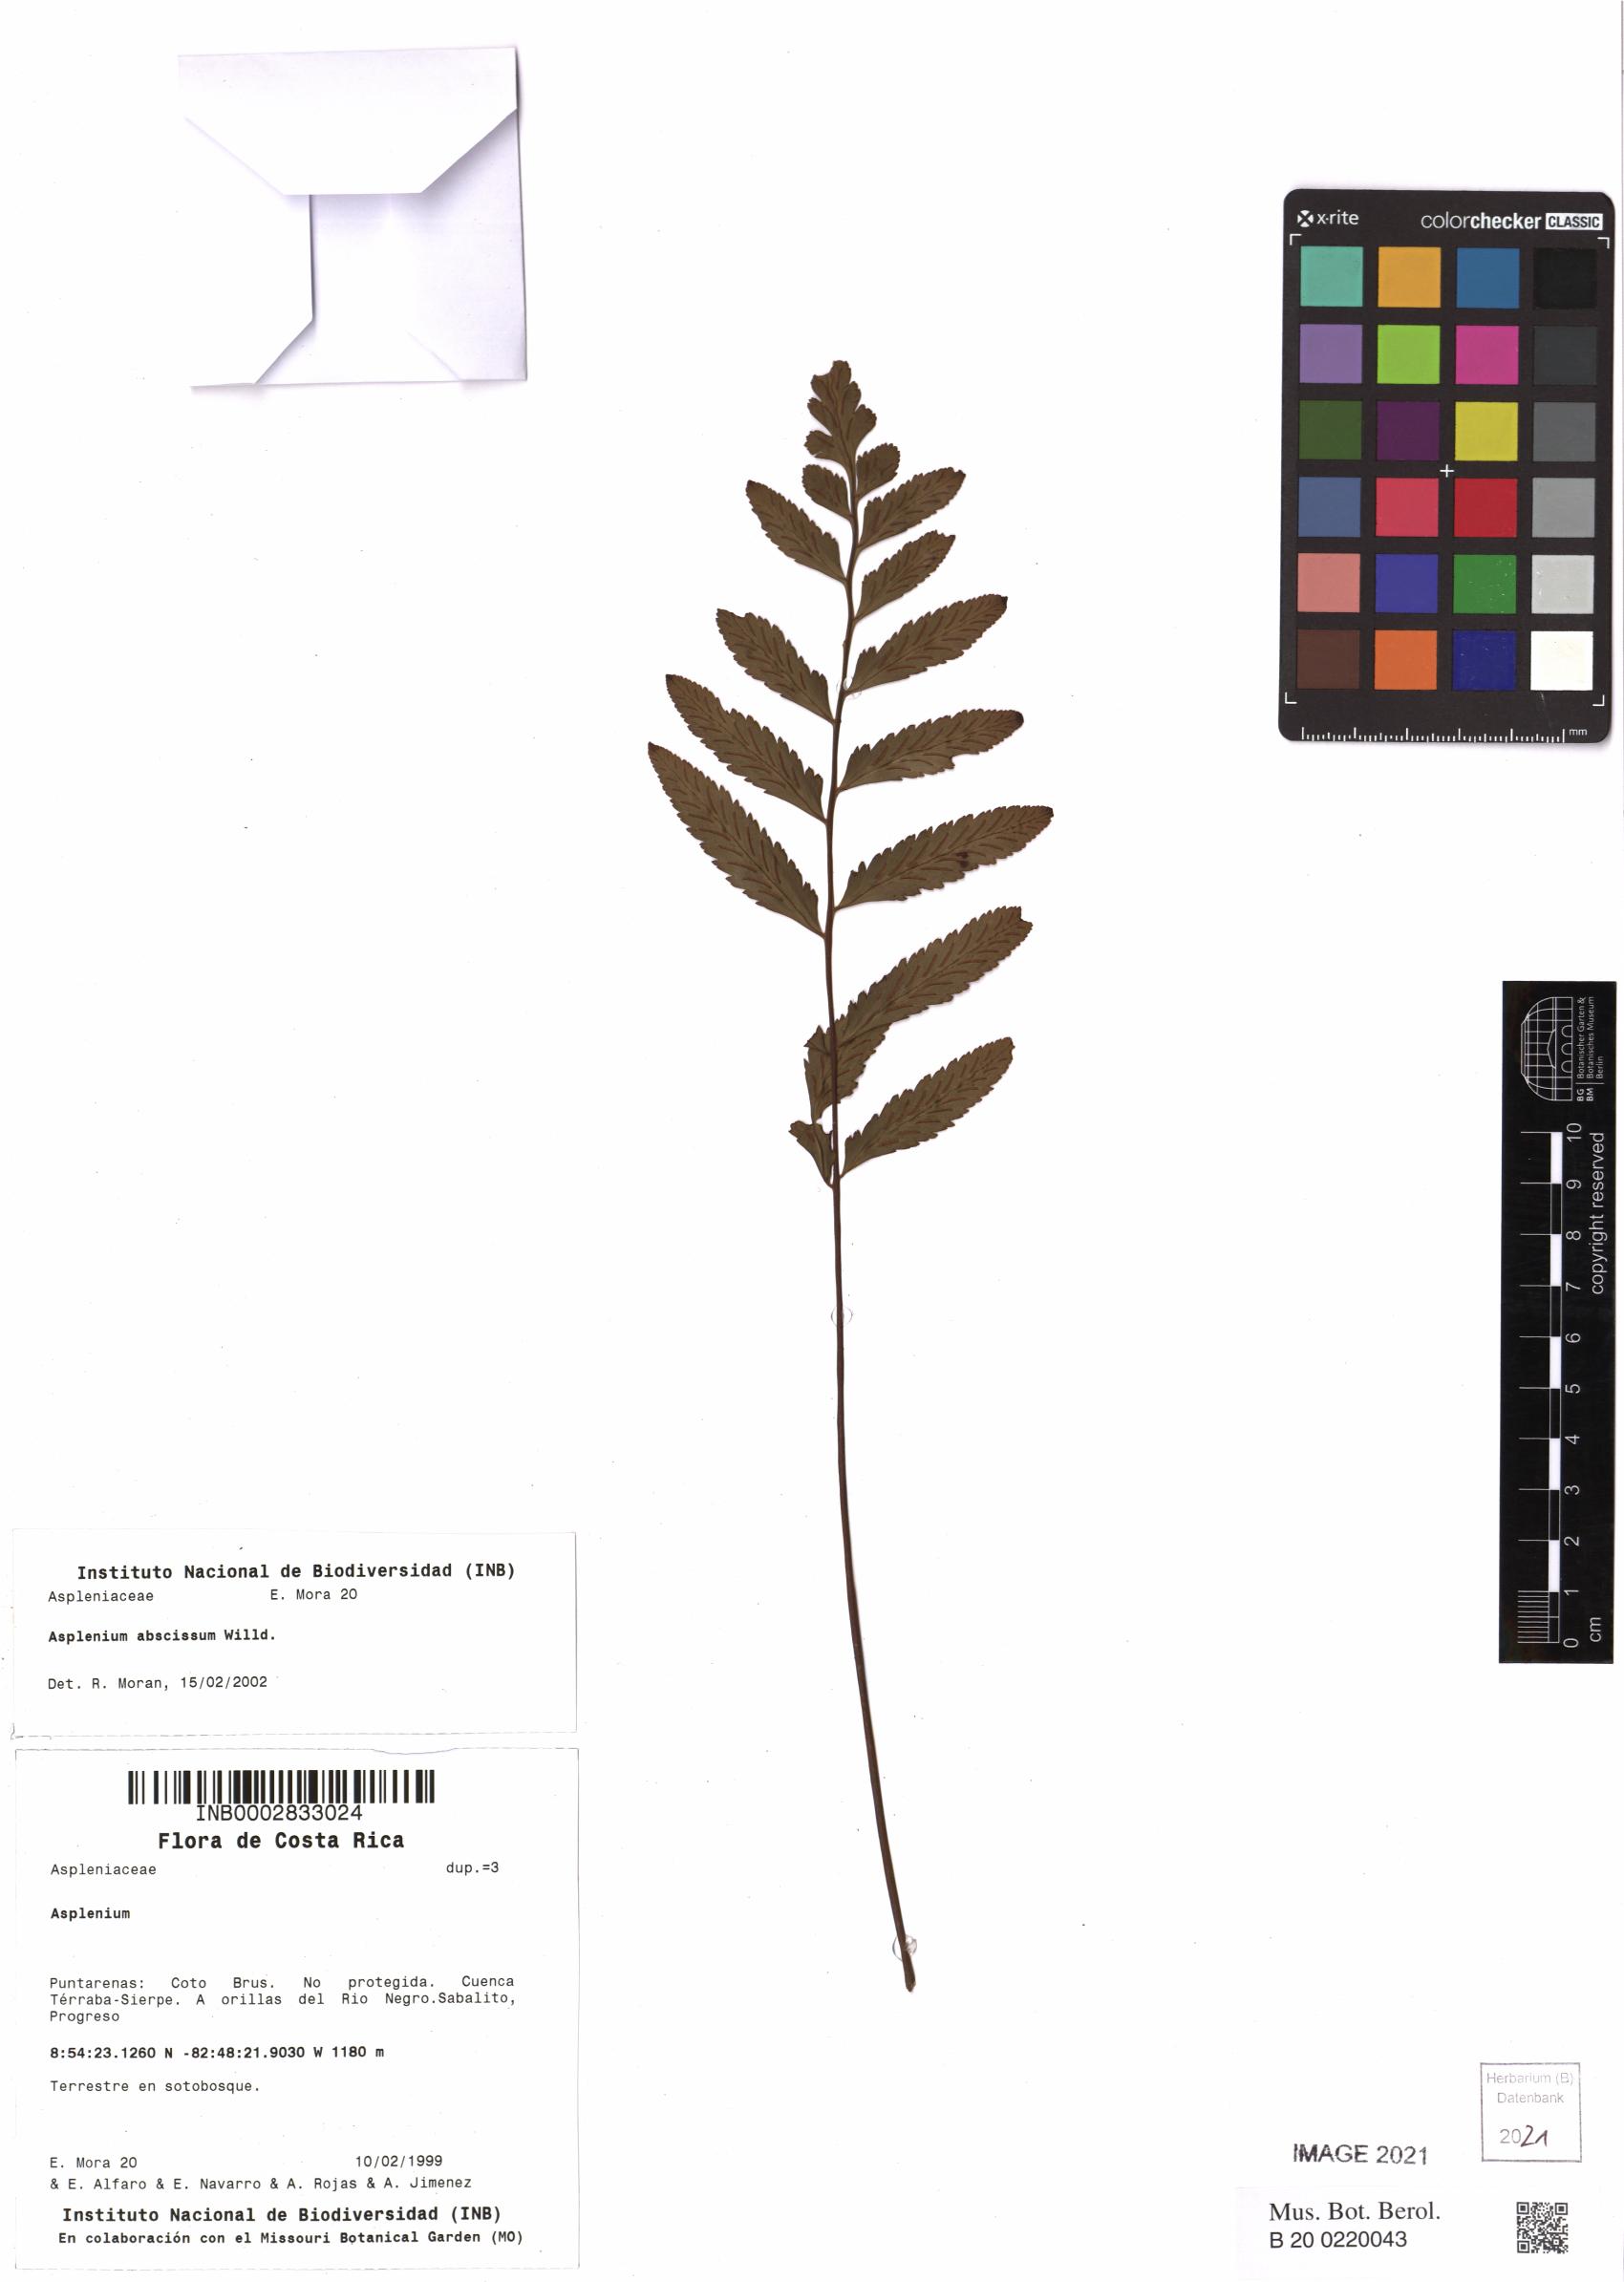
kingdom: Plantae
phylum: Tracheophyta
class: Polypodiopsida
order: Polypodiales
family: Aspleniaceae
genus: Asplenium
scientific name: Asplenium abscissum
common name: Cutleaf spleenwort
